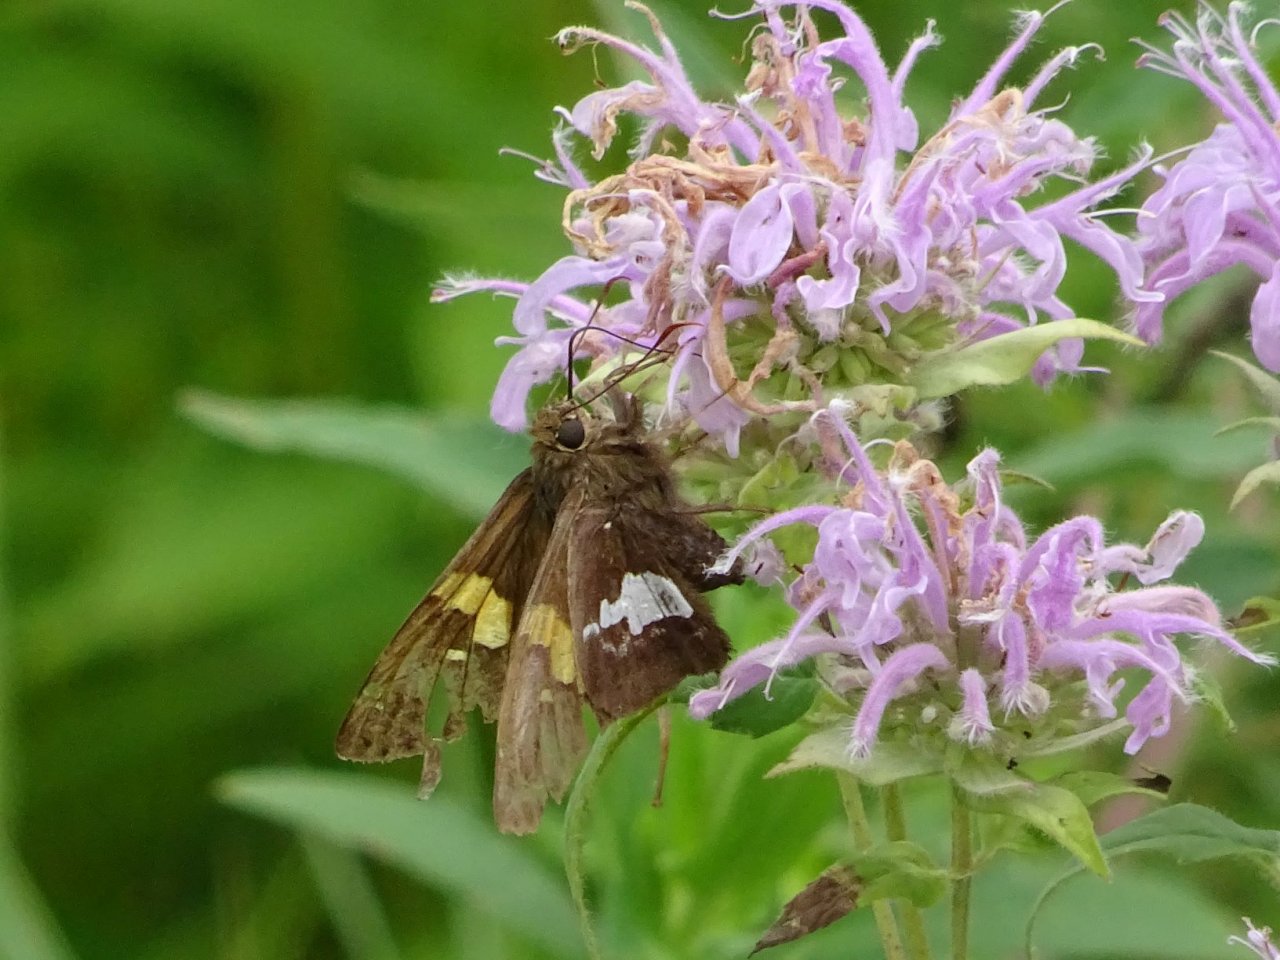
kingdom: Animalia
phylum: Arthropoda
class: Insecta
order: Lepidoptera
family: Hesperiidae
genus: Epargyreus
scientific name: Epargyreus clarus
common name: Silver-spotted Skipper
